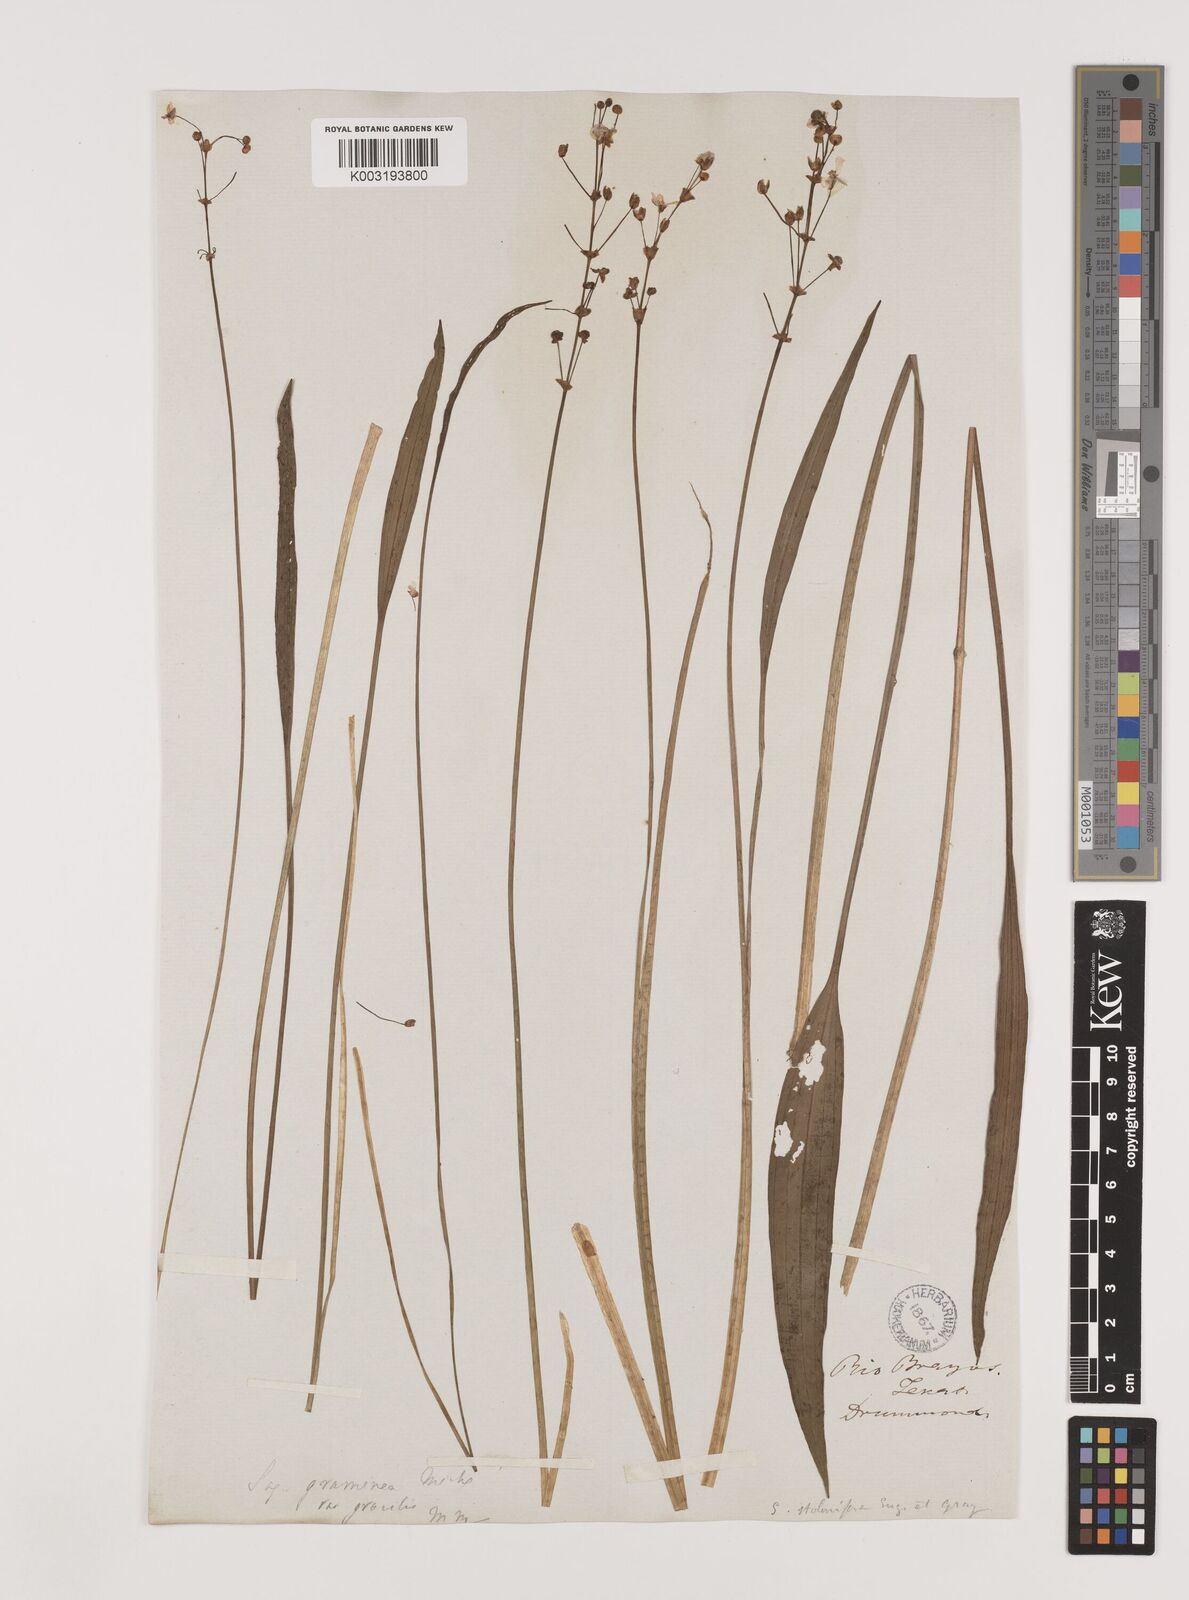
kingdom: Plantae
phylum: Tracheophyta
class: Liliopsida
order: Alismatales
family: Alismataceae
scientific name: Alismataceae
